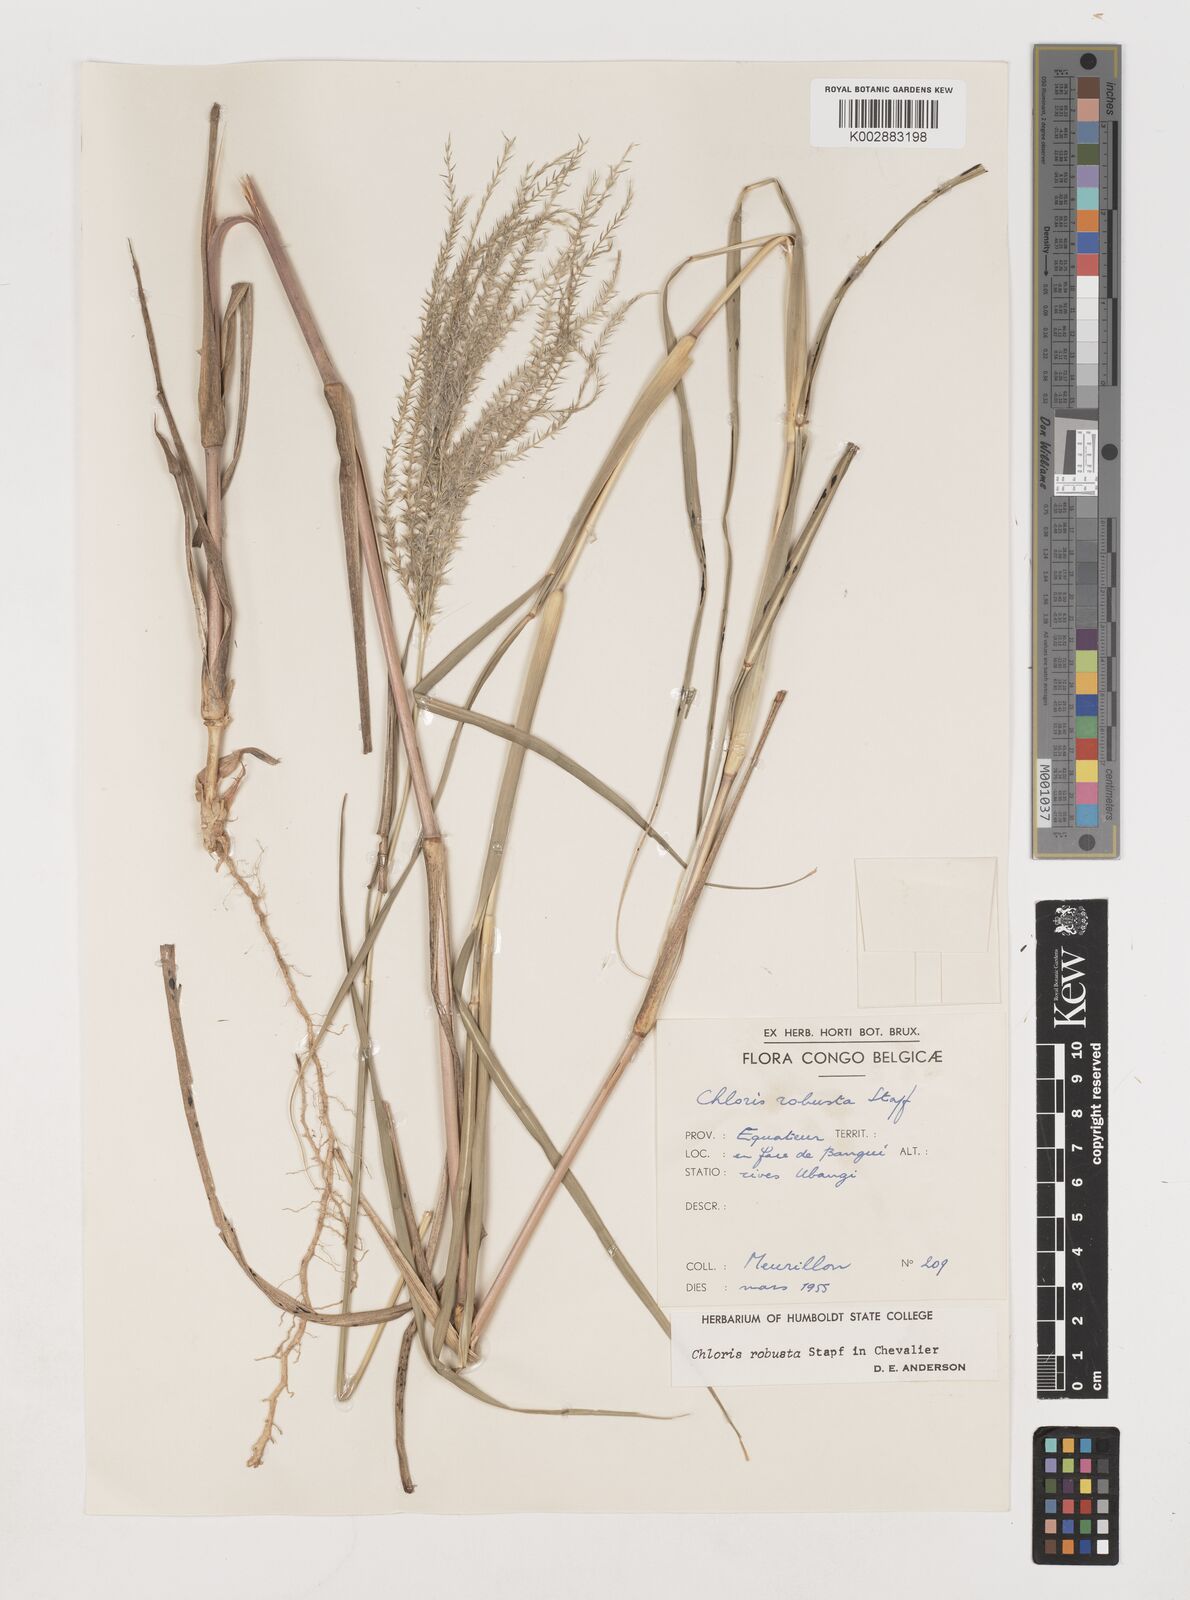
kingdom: Plantae
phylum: Tracheophyta
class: Liliopsida
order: Poales
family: Poaceae
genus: Chloris
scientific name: Chloris robusta
